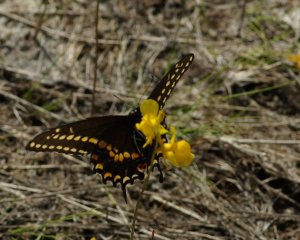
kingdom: Animalia
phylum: Arthropoda
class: Insecta
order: Lepidoptera
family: Papilionidae
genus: Papilio
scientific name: Papilio polyxenes
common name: Black Swallowtail
